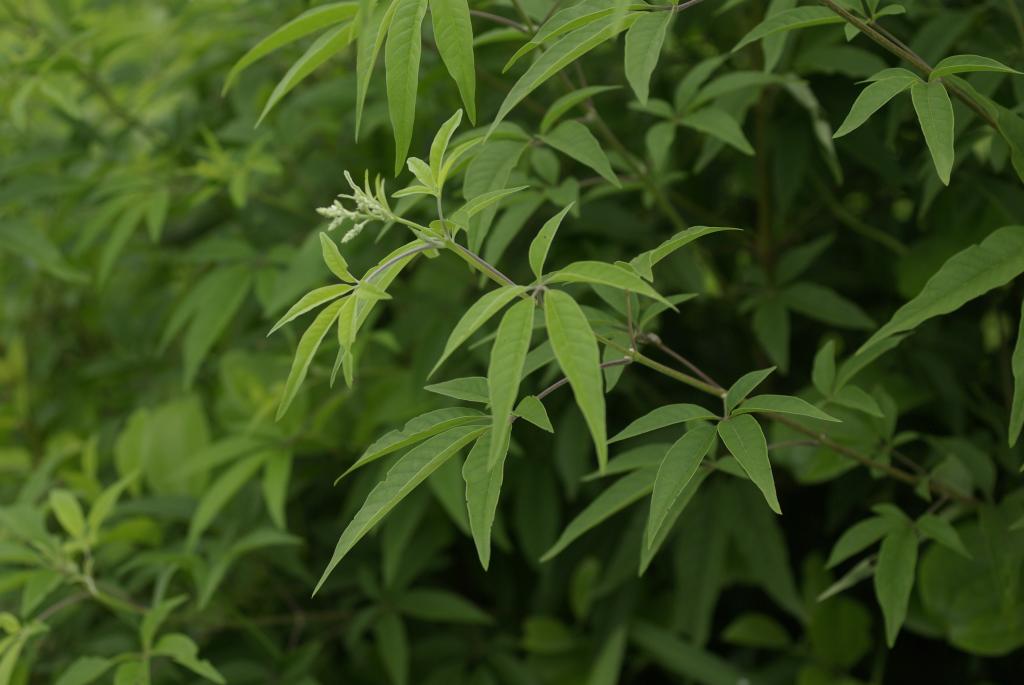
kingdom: Plantae
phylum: Tracheophyta
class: Magnoliopsida
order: Lamiales
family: Lamiaceae
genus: Vitex
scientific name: Vitex negundo
